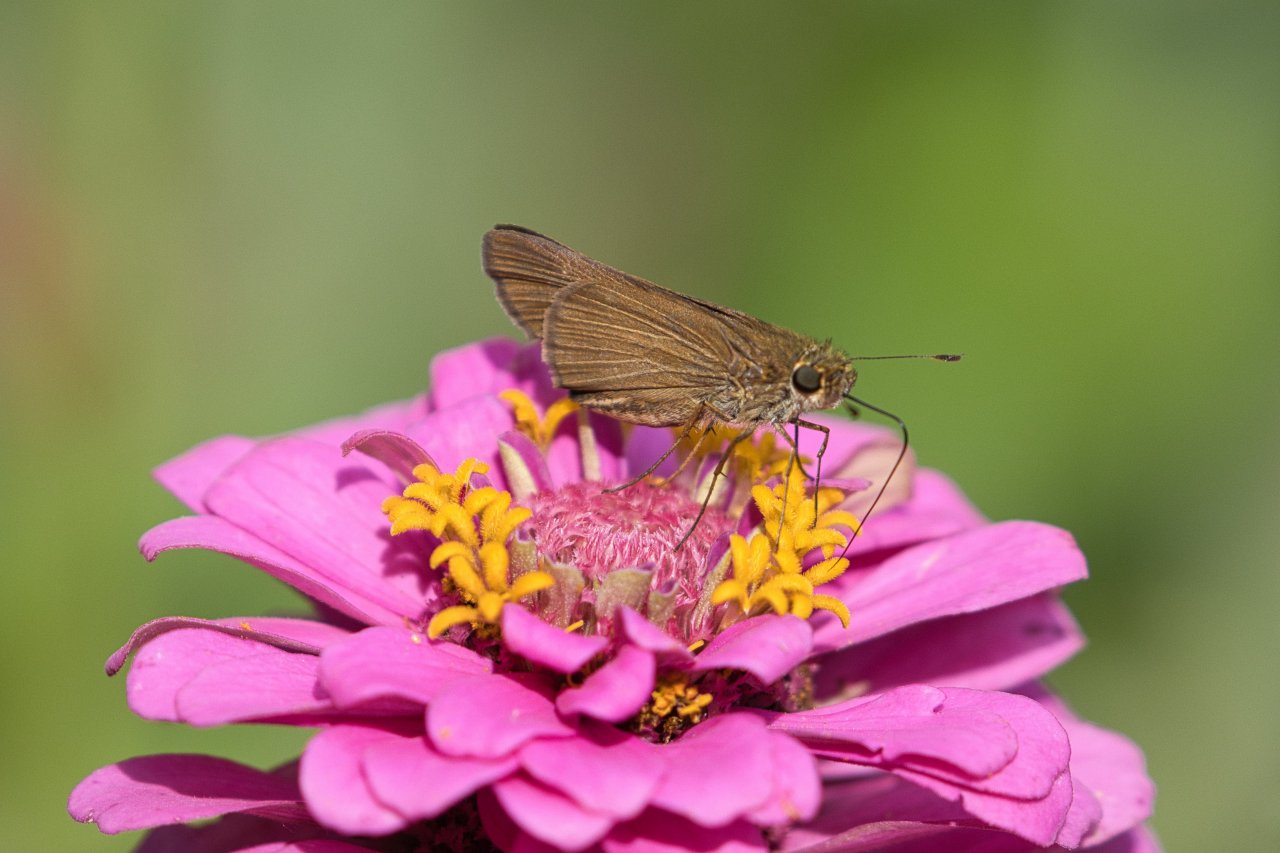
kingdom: Animalia
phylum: Arthropoda
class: Insecta
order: Lepidoptera
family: Hesperiidae
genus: Panoquina
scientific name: Panoquina ocola
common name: Ocola Skipper
